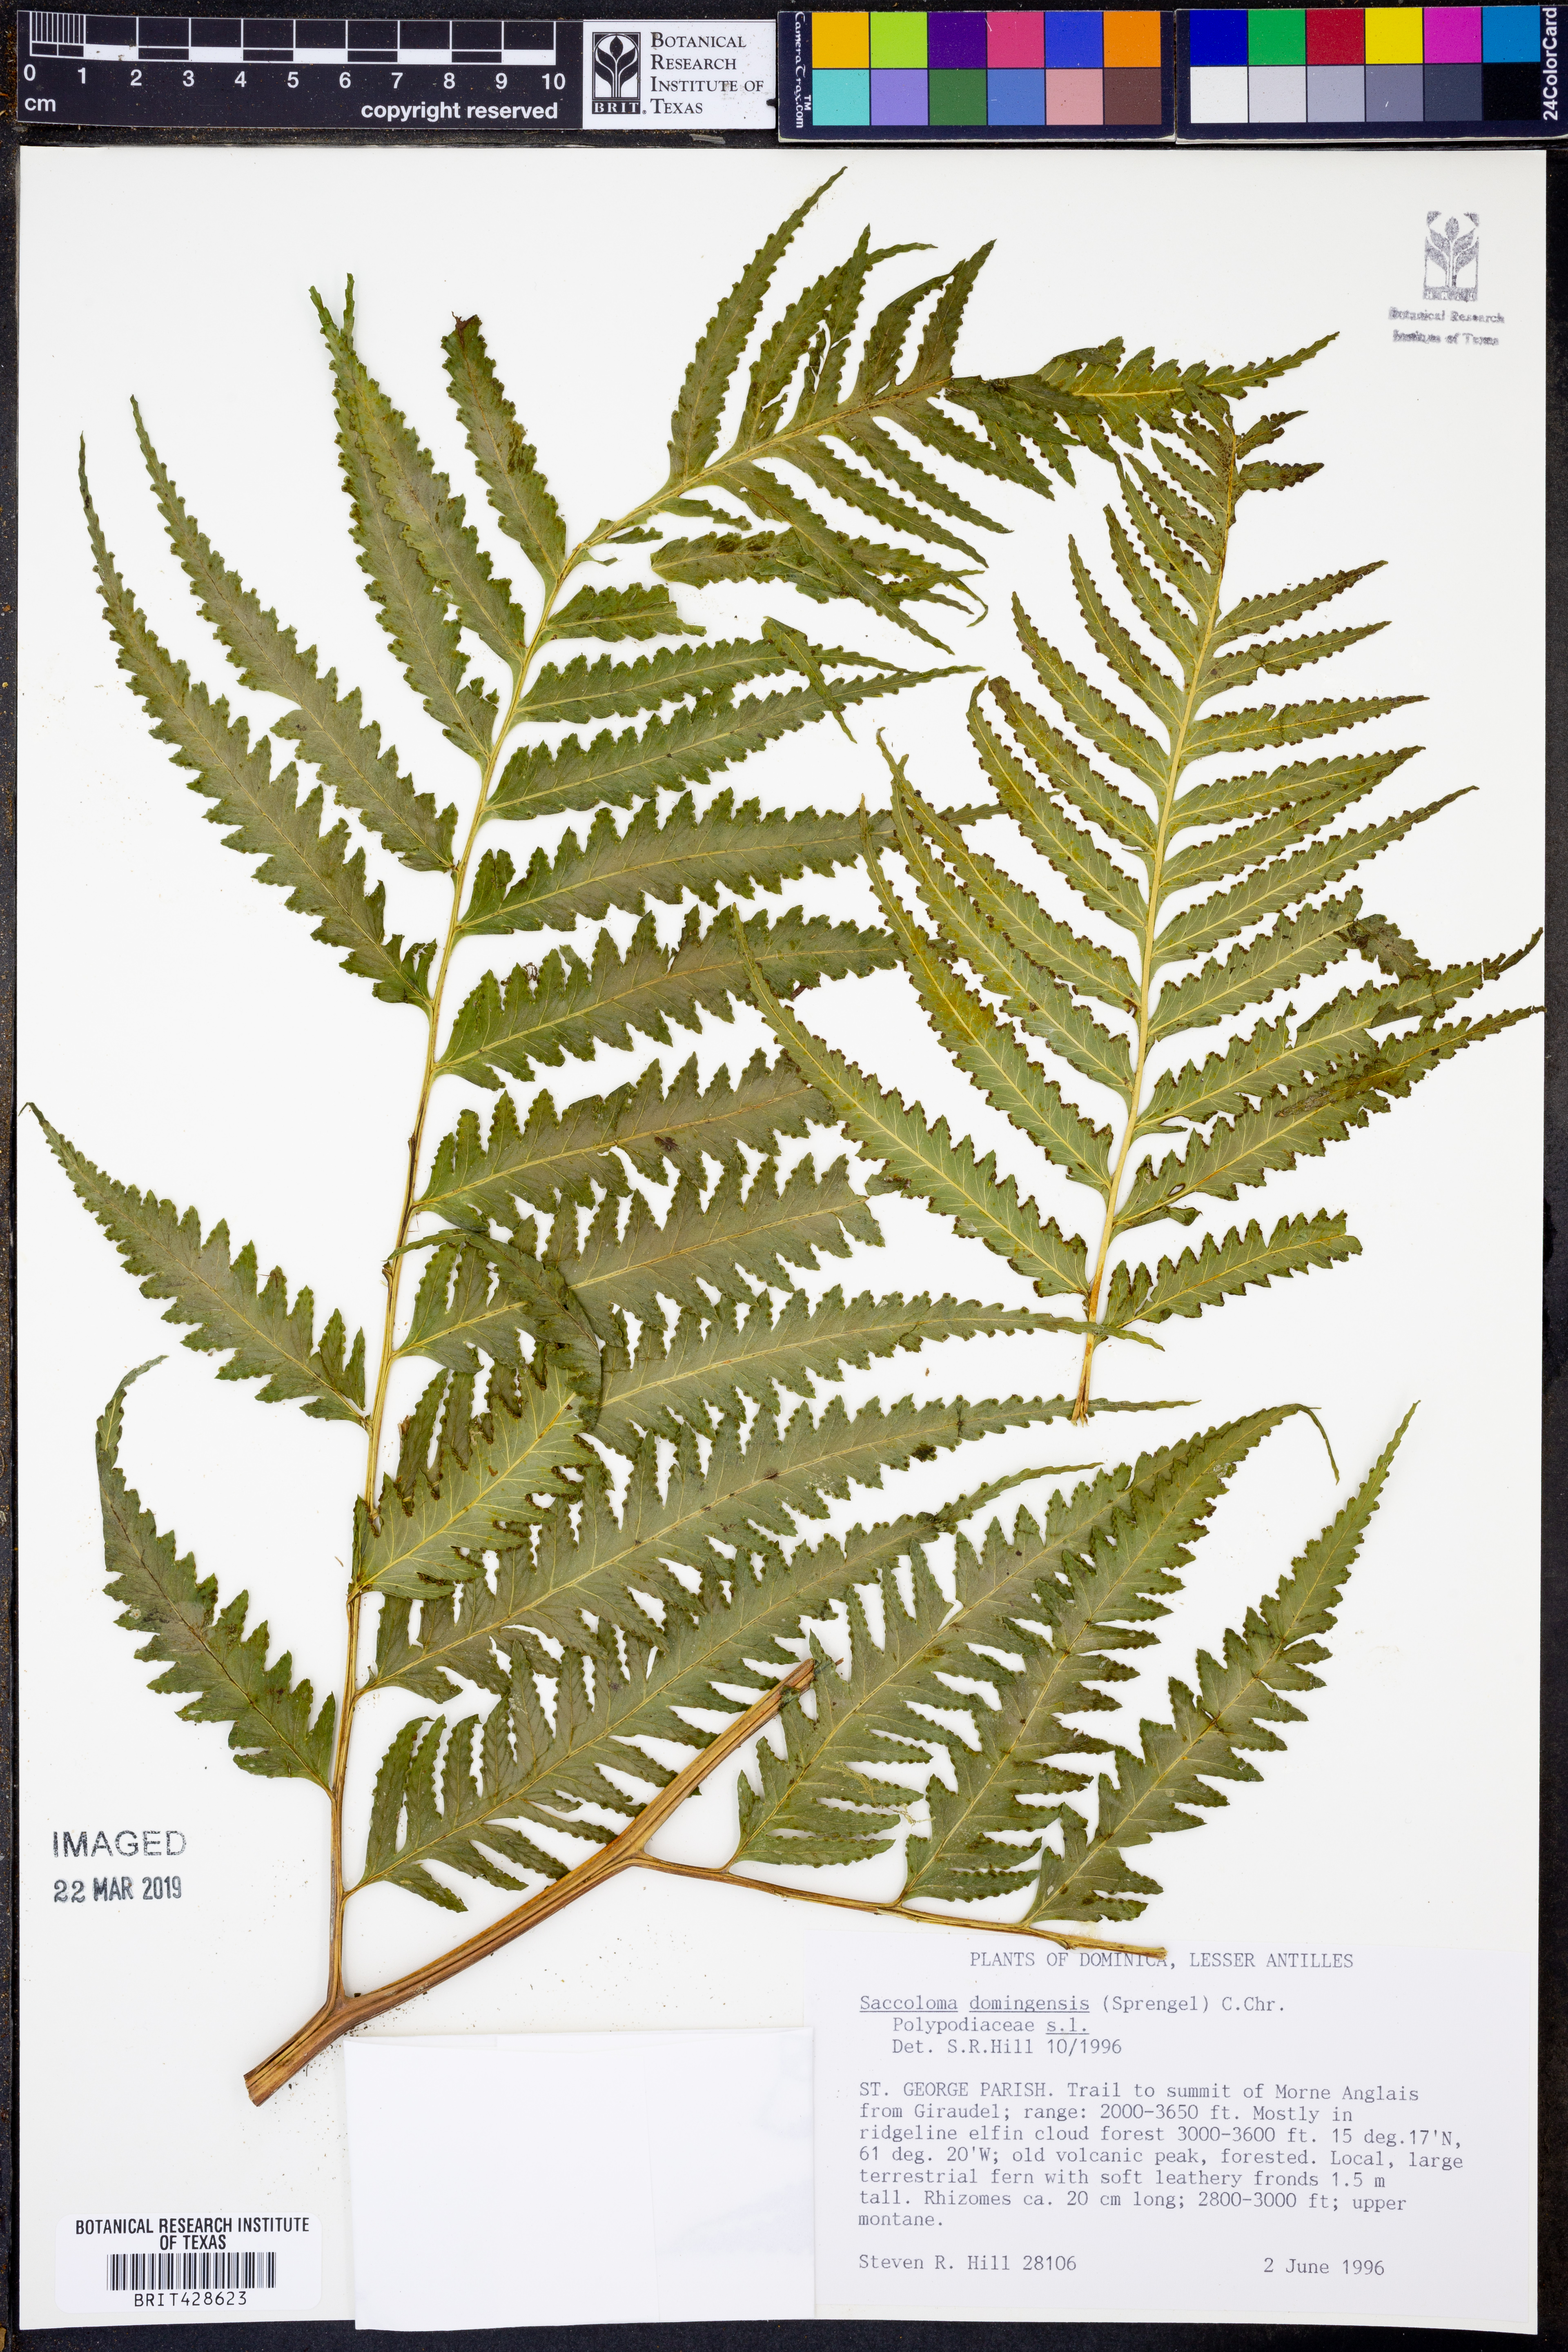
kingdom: Plantae
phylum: Tracheophyta
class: Polypodiopsida
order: Polypodiales
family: Saccolomataceae
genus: Saccoloma
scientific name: Saccoloma domingense
